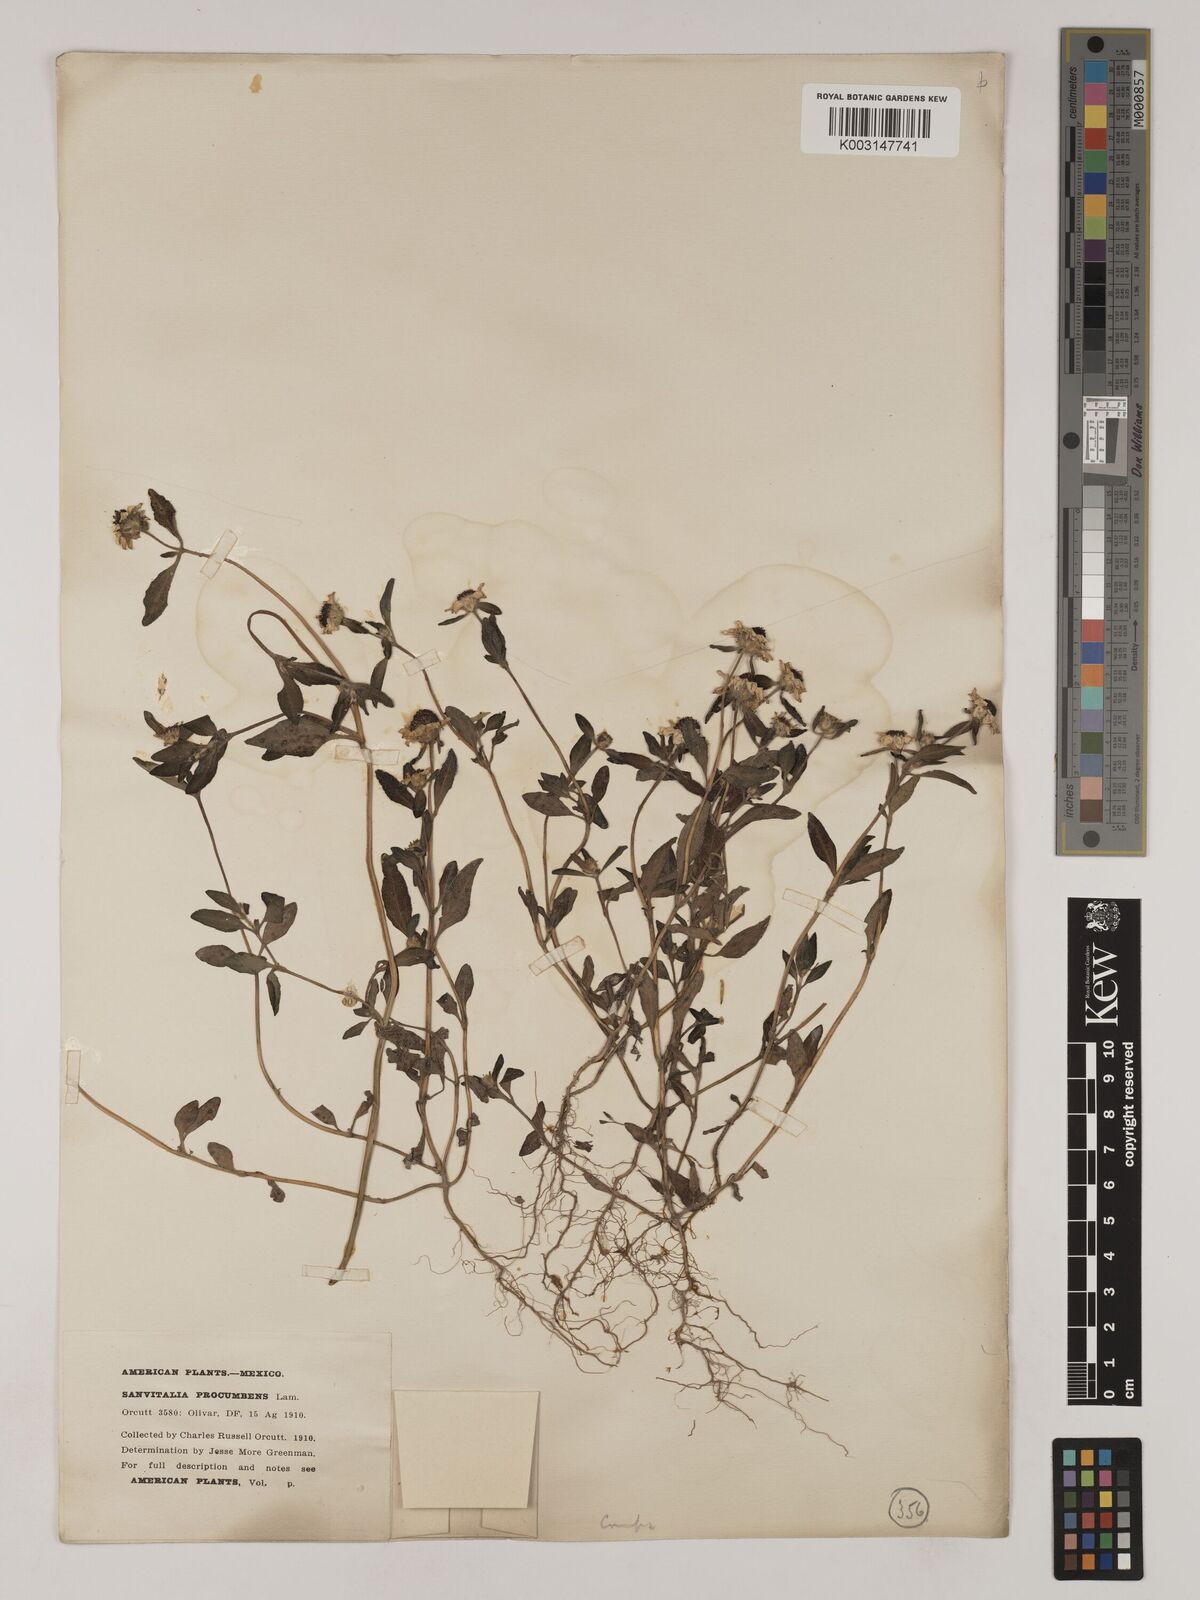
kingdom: Plantae
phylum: Tracheophyta
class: Magnoliopsida
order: Asterales
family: Asteraceae
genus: Sanvitalia
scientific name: Sanvitalia procumbens
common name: Mexican creeping zinnia
